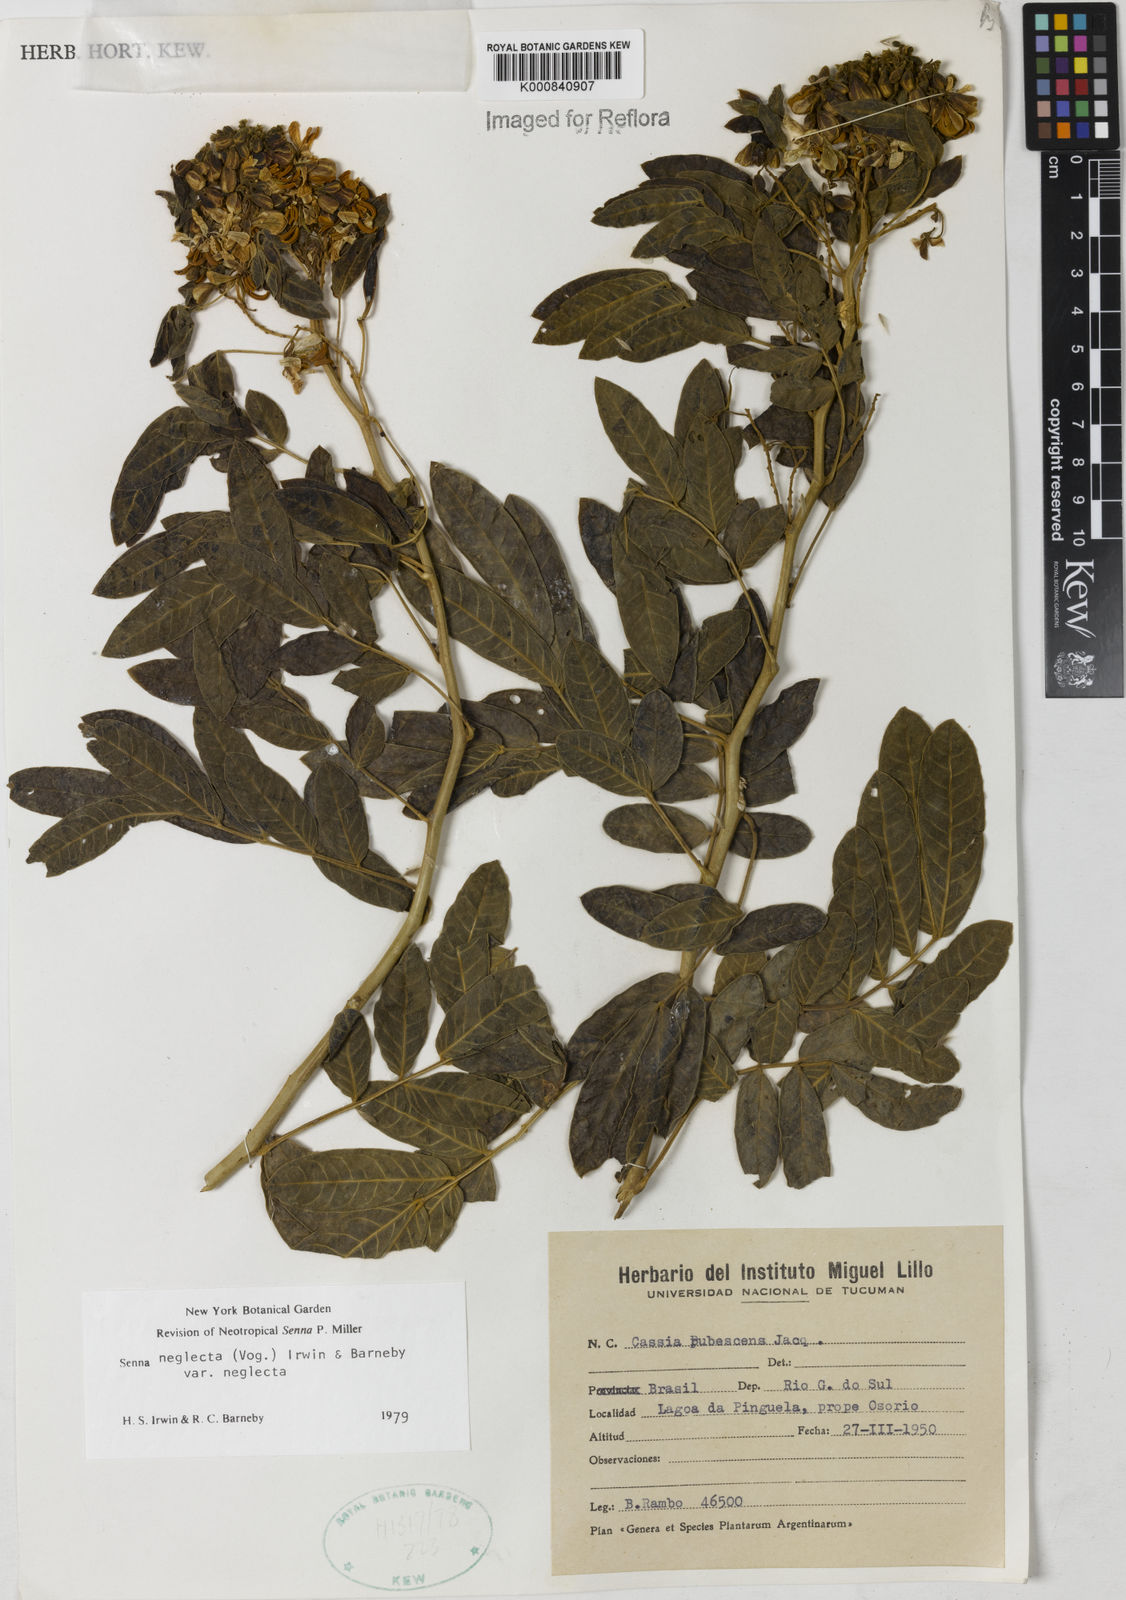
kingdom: Plantae
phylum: Tracheophyta
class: Magnoliopsida
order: Fabales
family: Fabaceae
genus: Senna
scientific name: Senna neglecta
